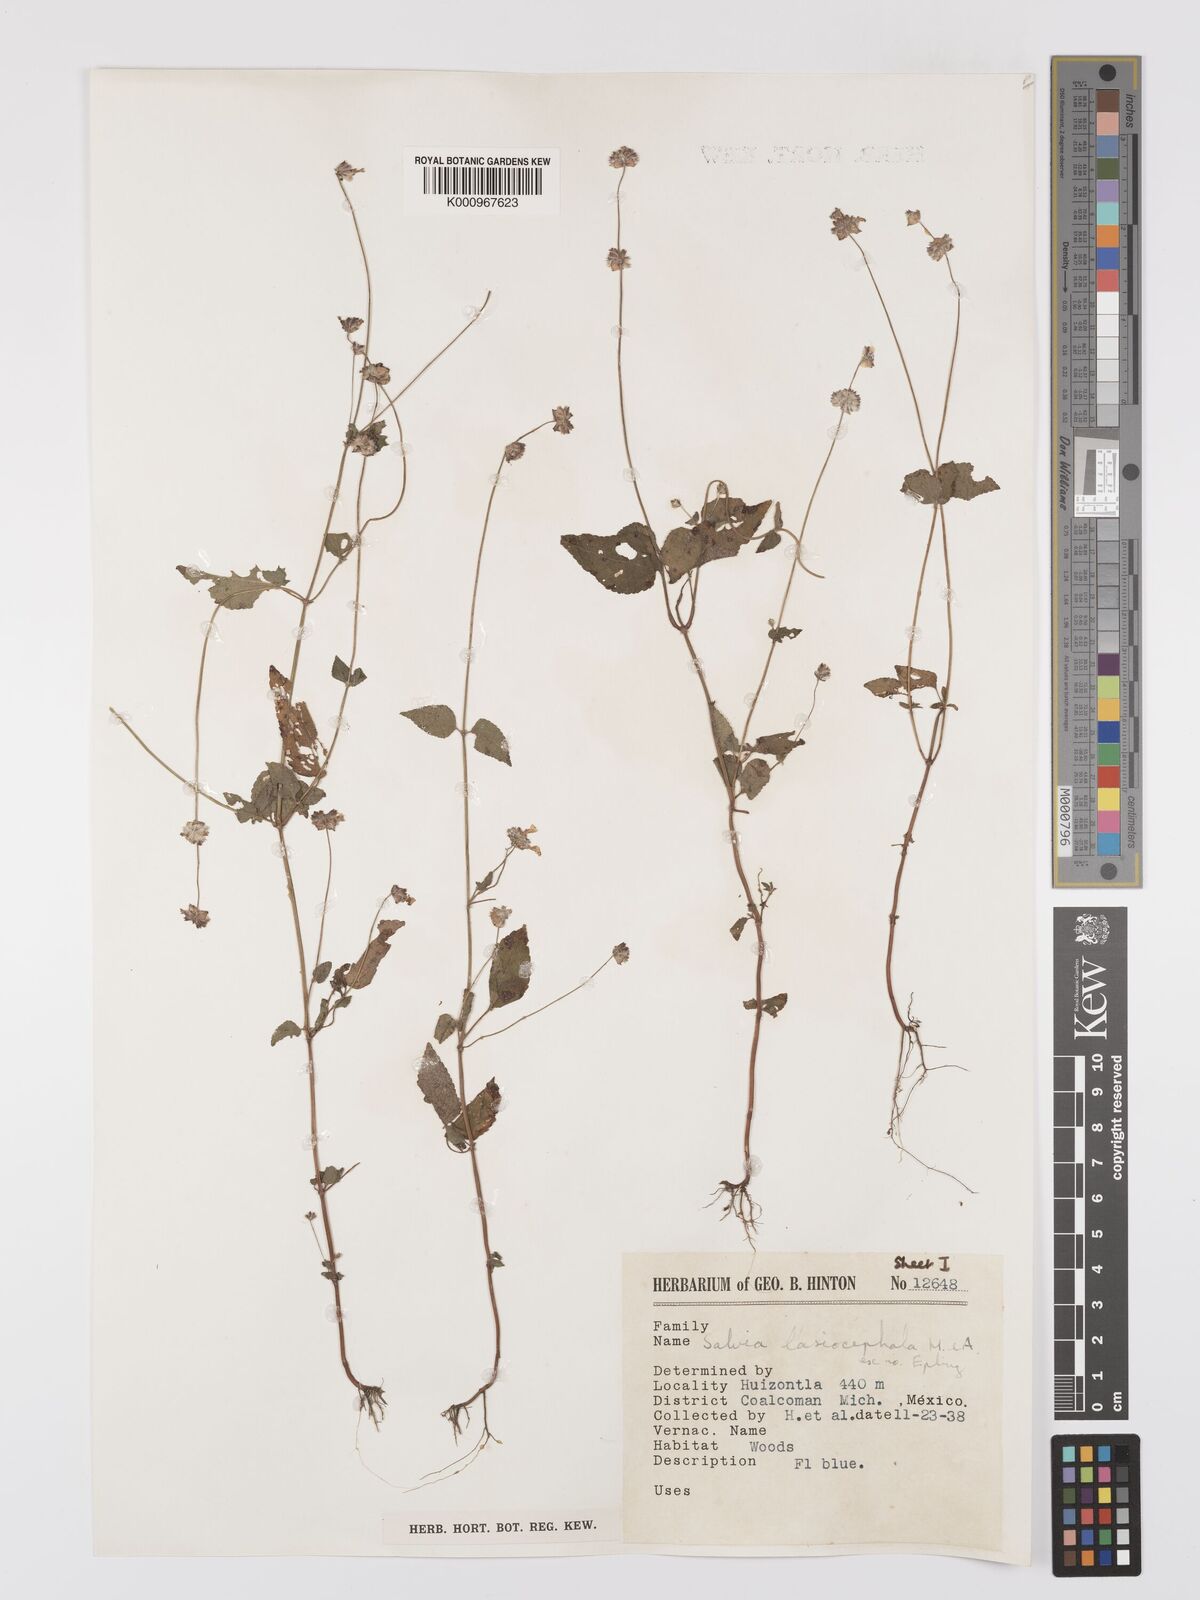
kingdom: Plantae
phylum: Tracheophyta
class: Magnoliopsida
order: Lamiales
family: Lamiaceae
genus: Salvia
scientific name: Salvia lasiocephala
